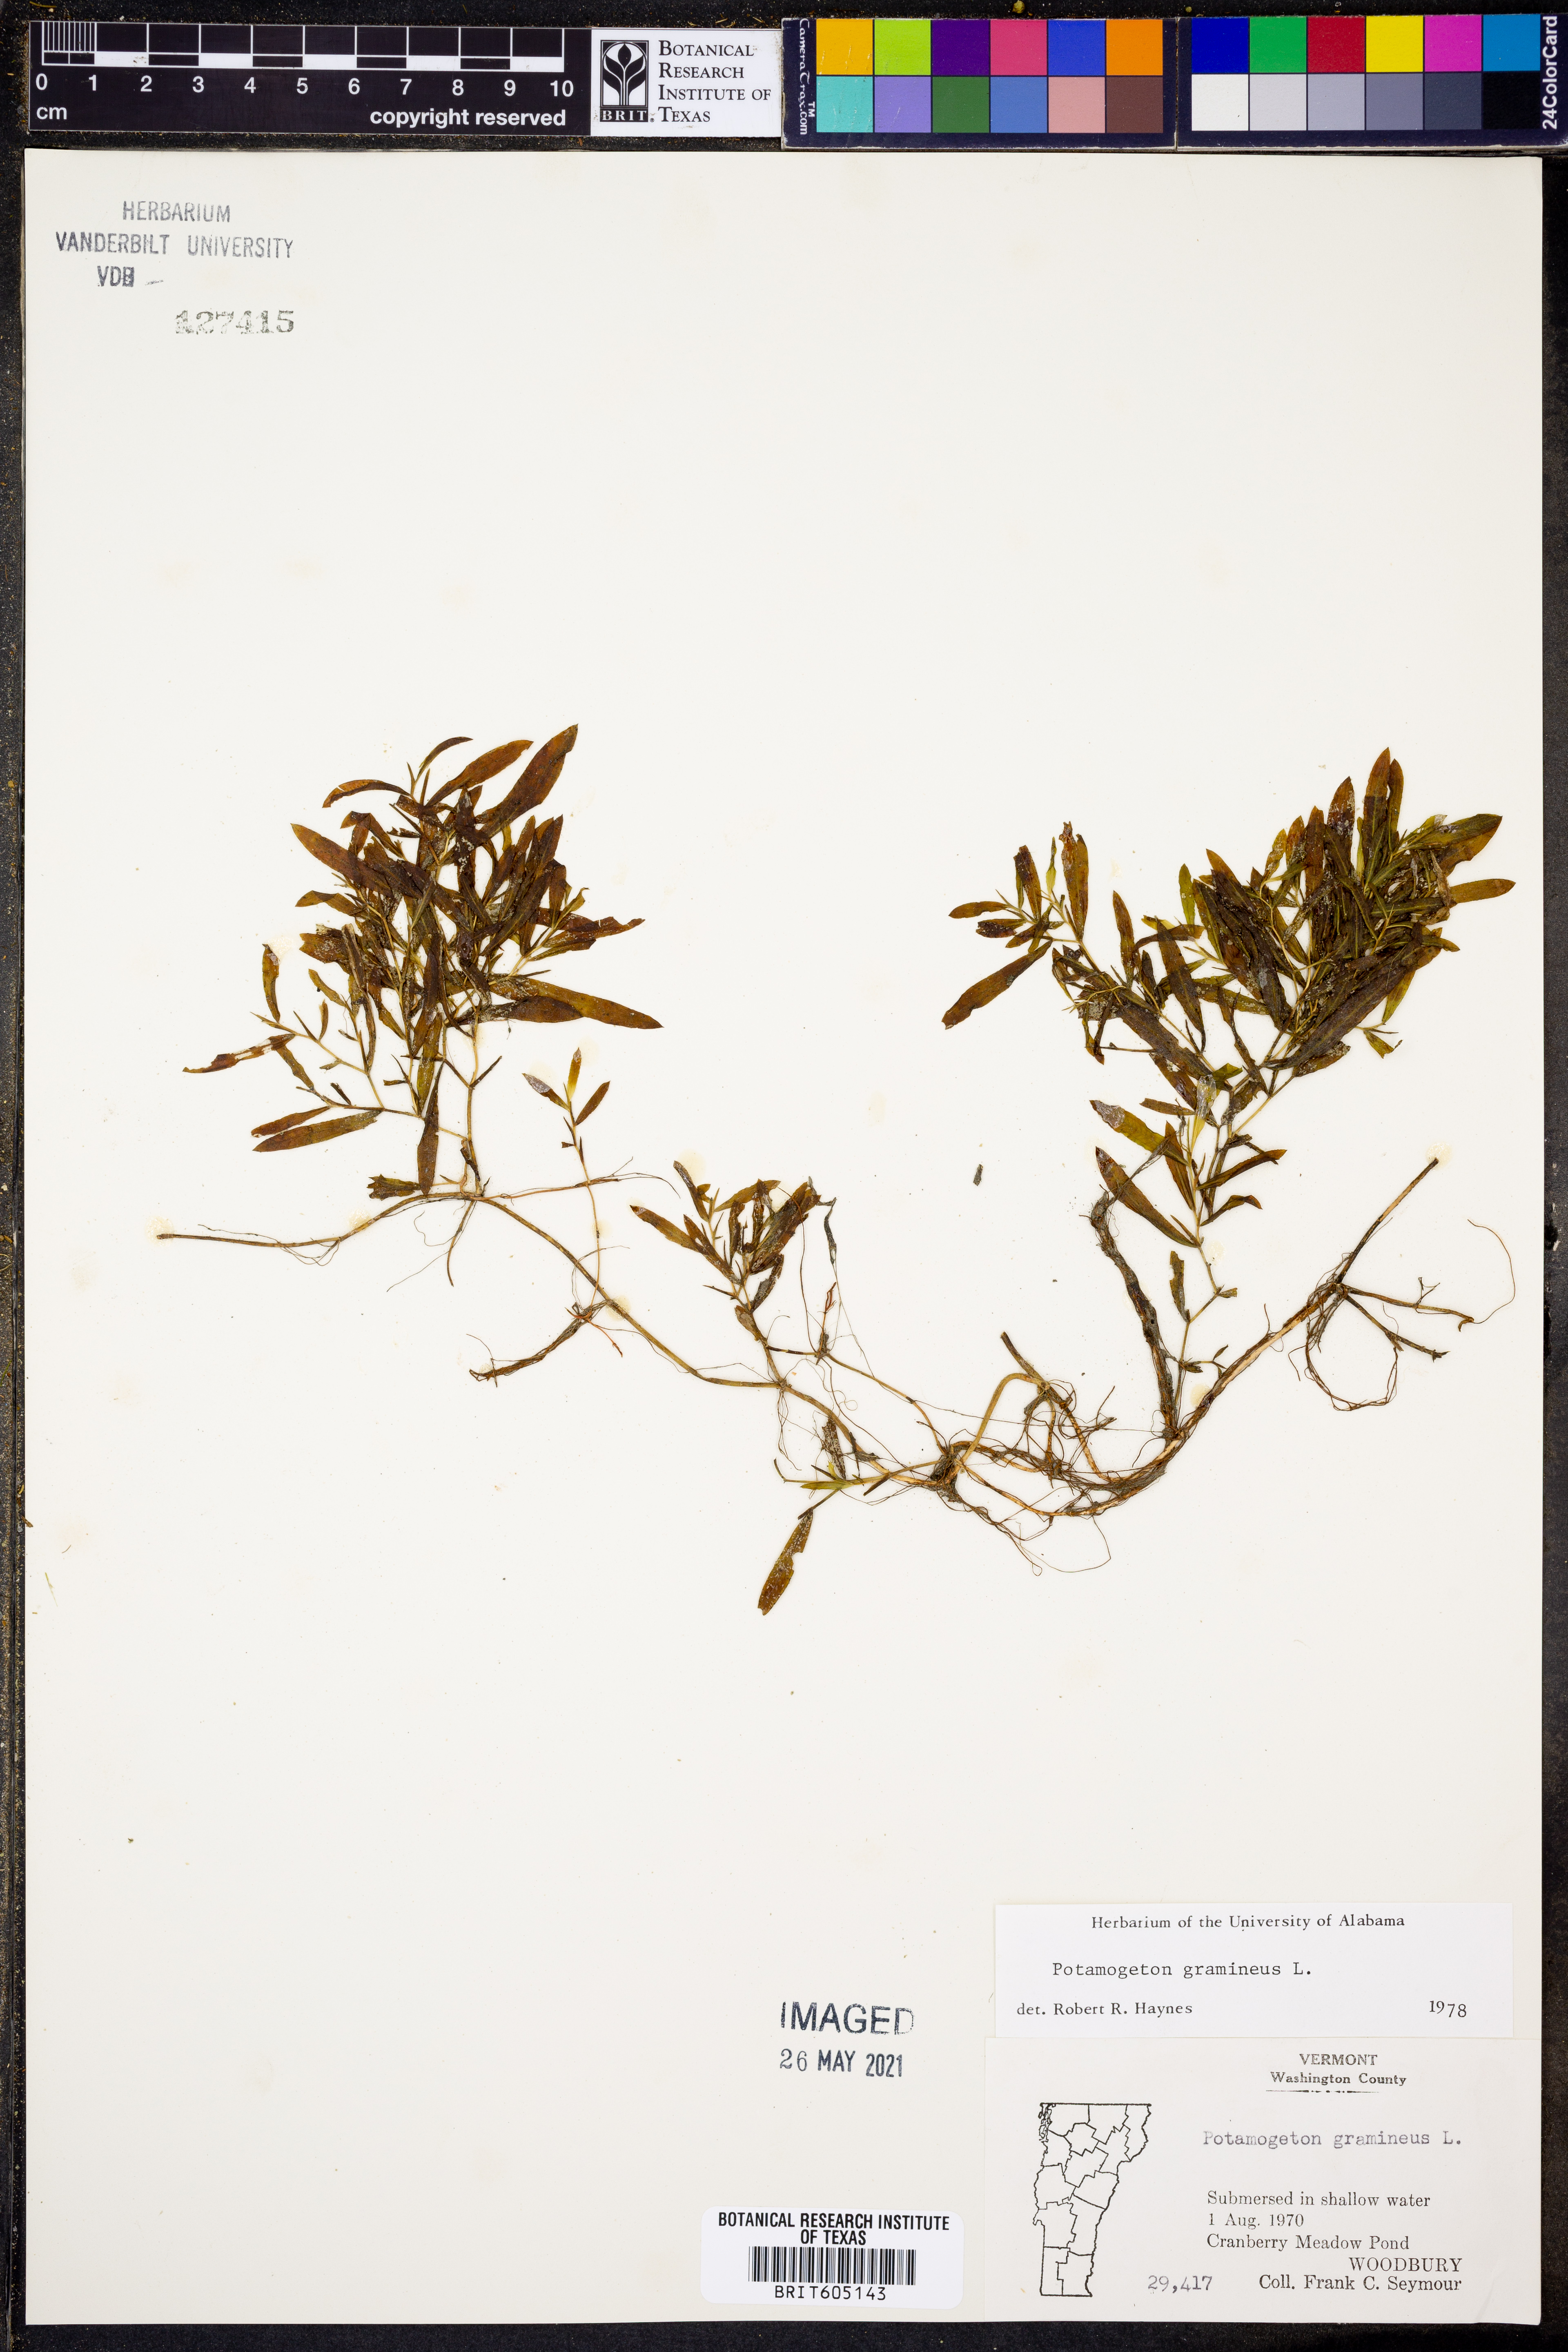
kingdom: Plantae
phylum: Tracheophyta
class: Liliopsida
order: Alismatales
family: Potamogetonaceae
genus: Potamogeton
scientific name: Potamogeton gramineus
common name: Various-leaved pondweed
